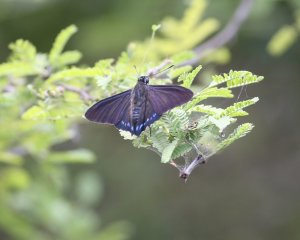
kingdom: Animalia
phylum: Arthropoda
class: Insecta
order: Lepidoptera
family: Hesperiidae
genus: Phocides
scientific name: Phocides pigmalion
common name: Mangrove Skipper
